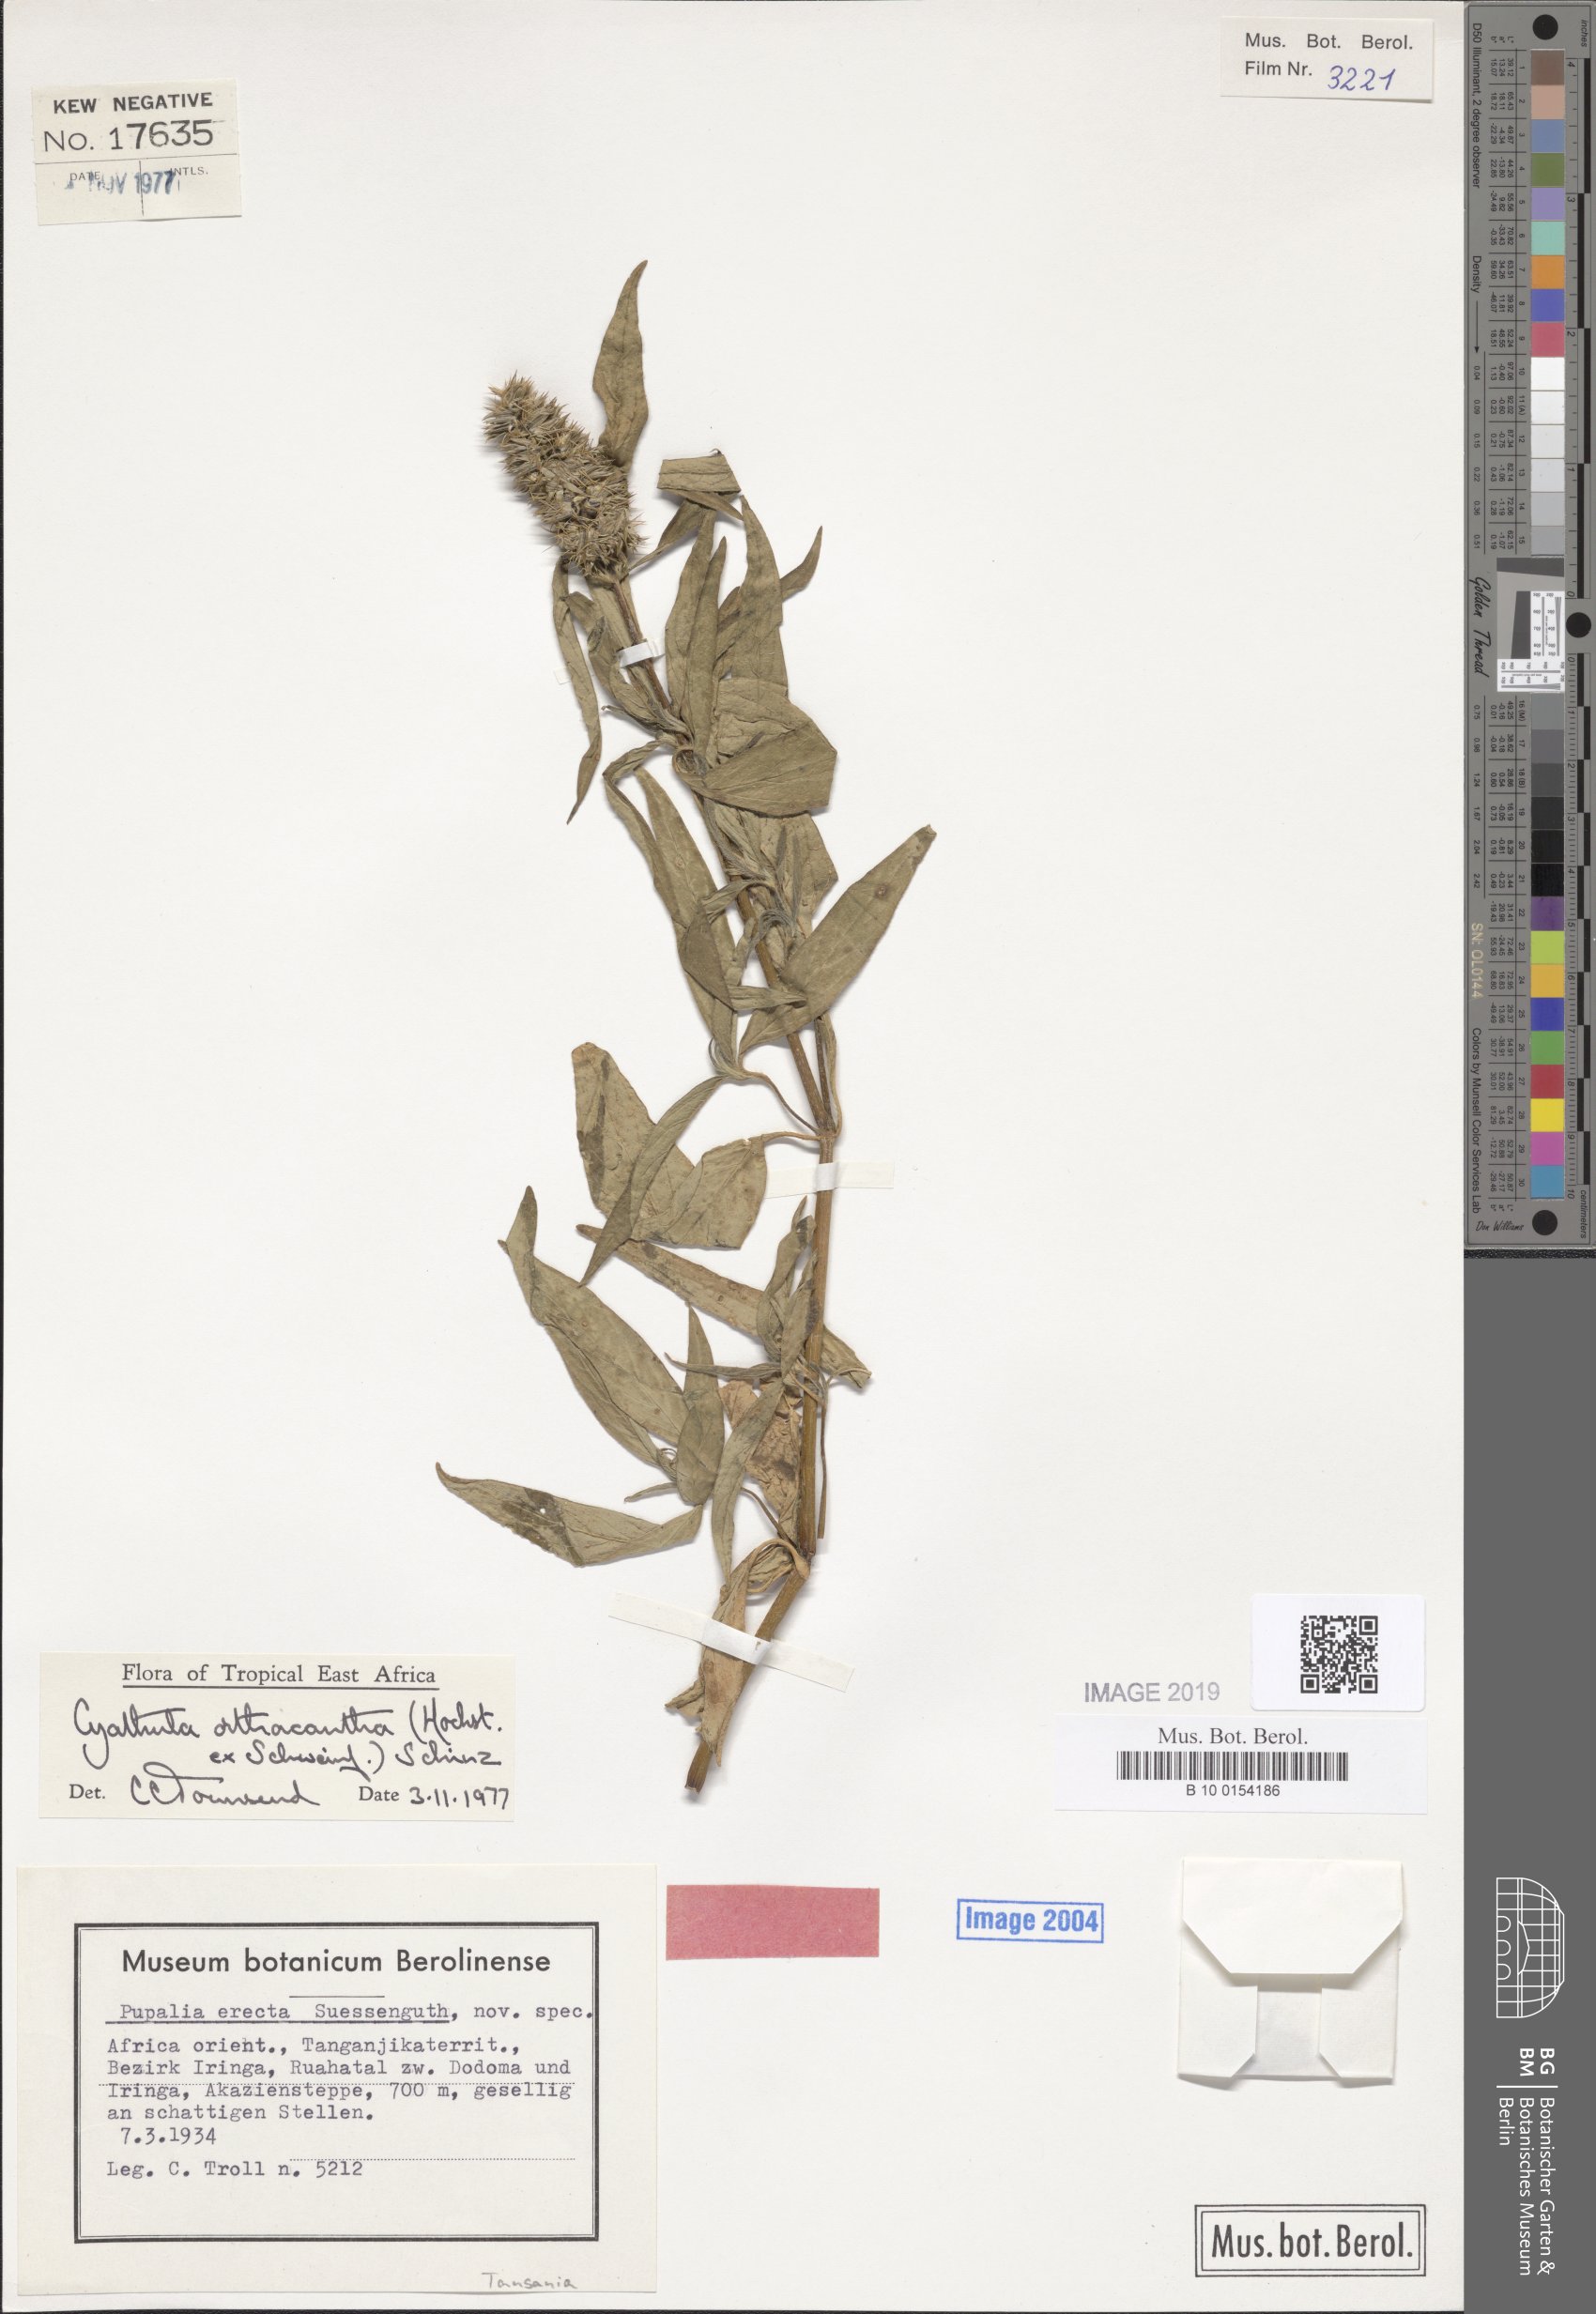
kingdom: Plantae
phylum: Tracheophyta
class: Magnoliopsida
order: Caryophyllales
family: Amaranthaceae
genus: Cyathula
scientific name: Cyathula orthacantha
